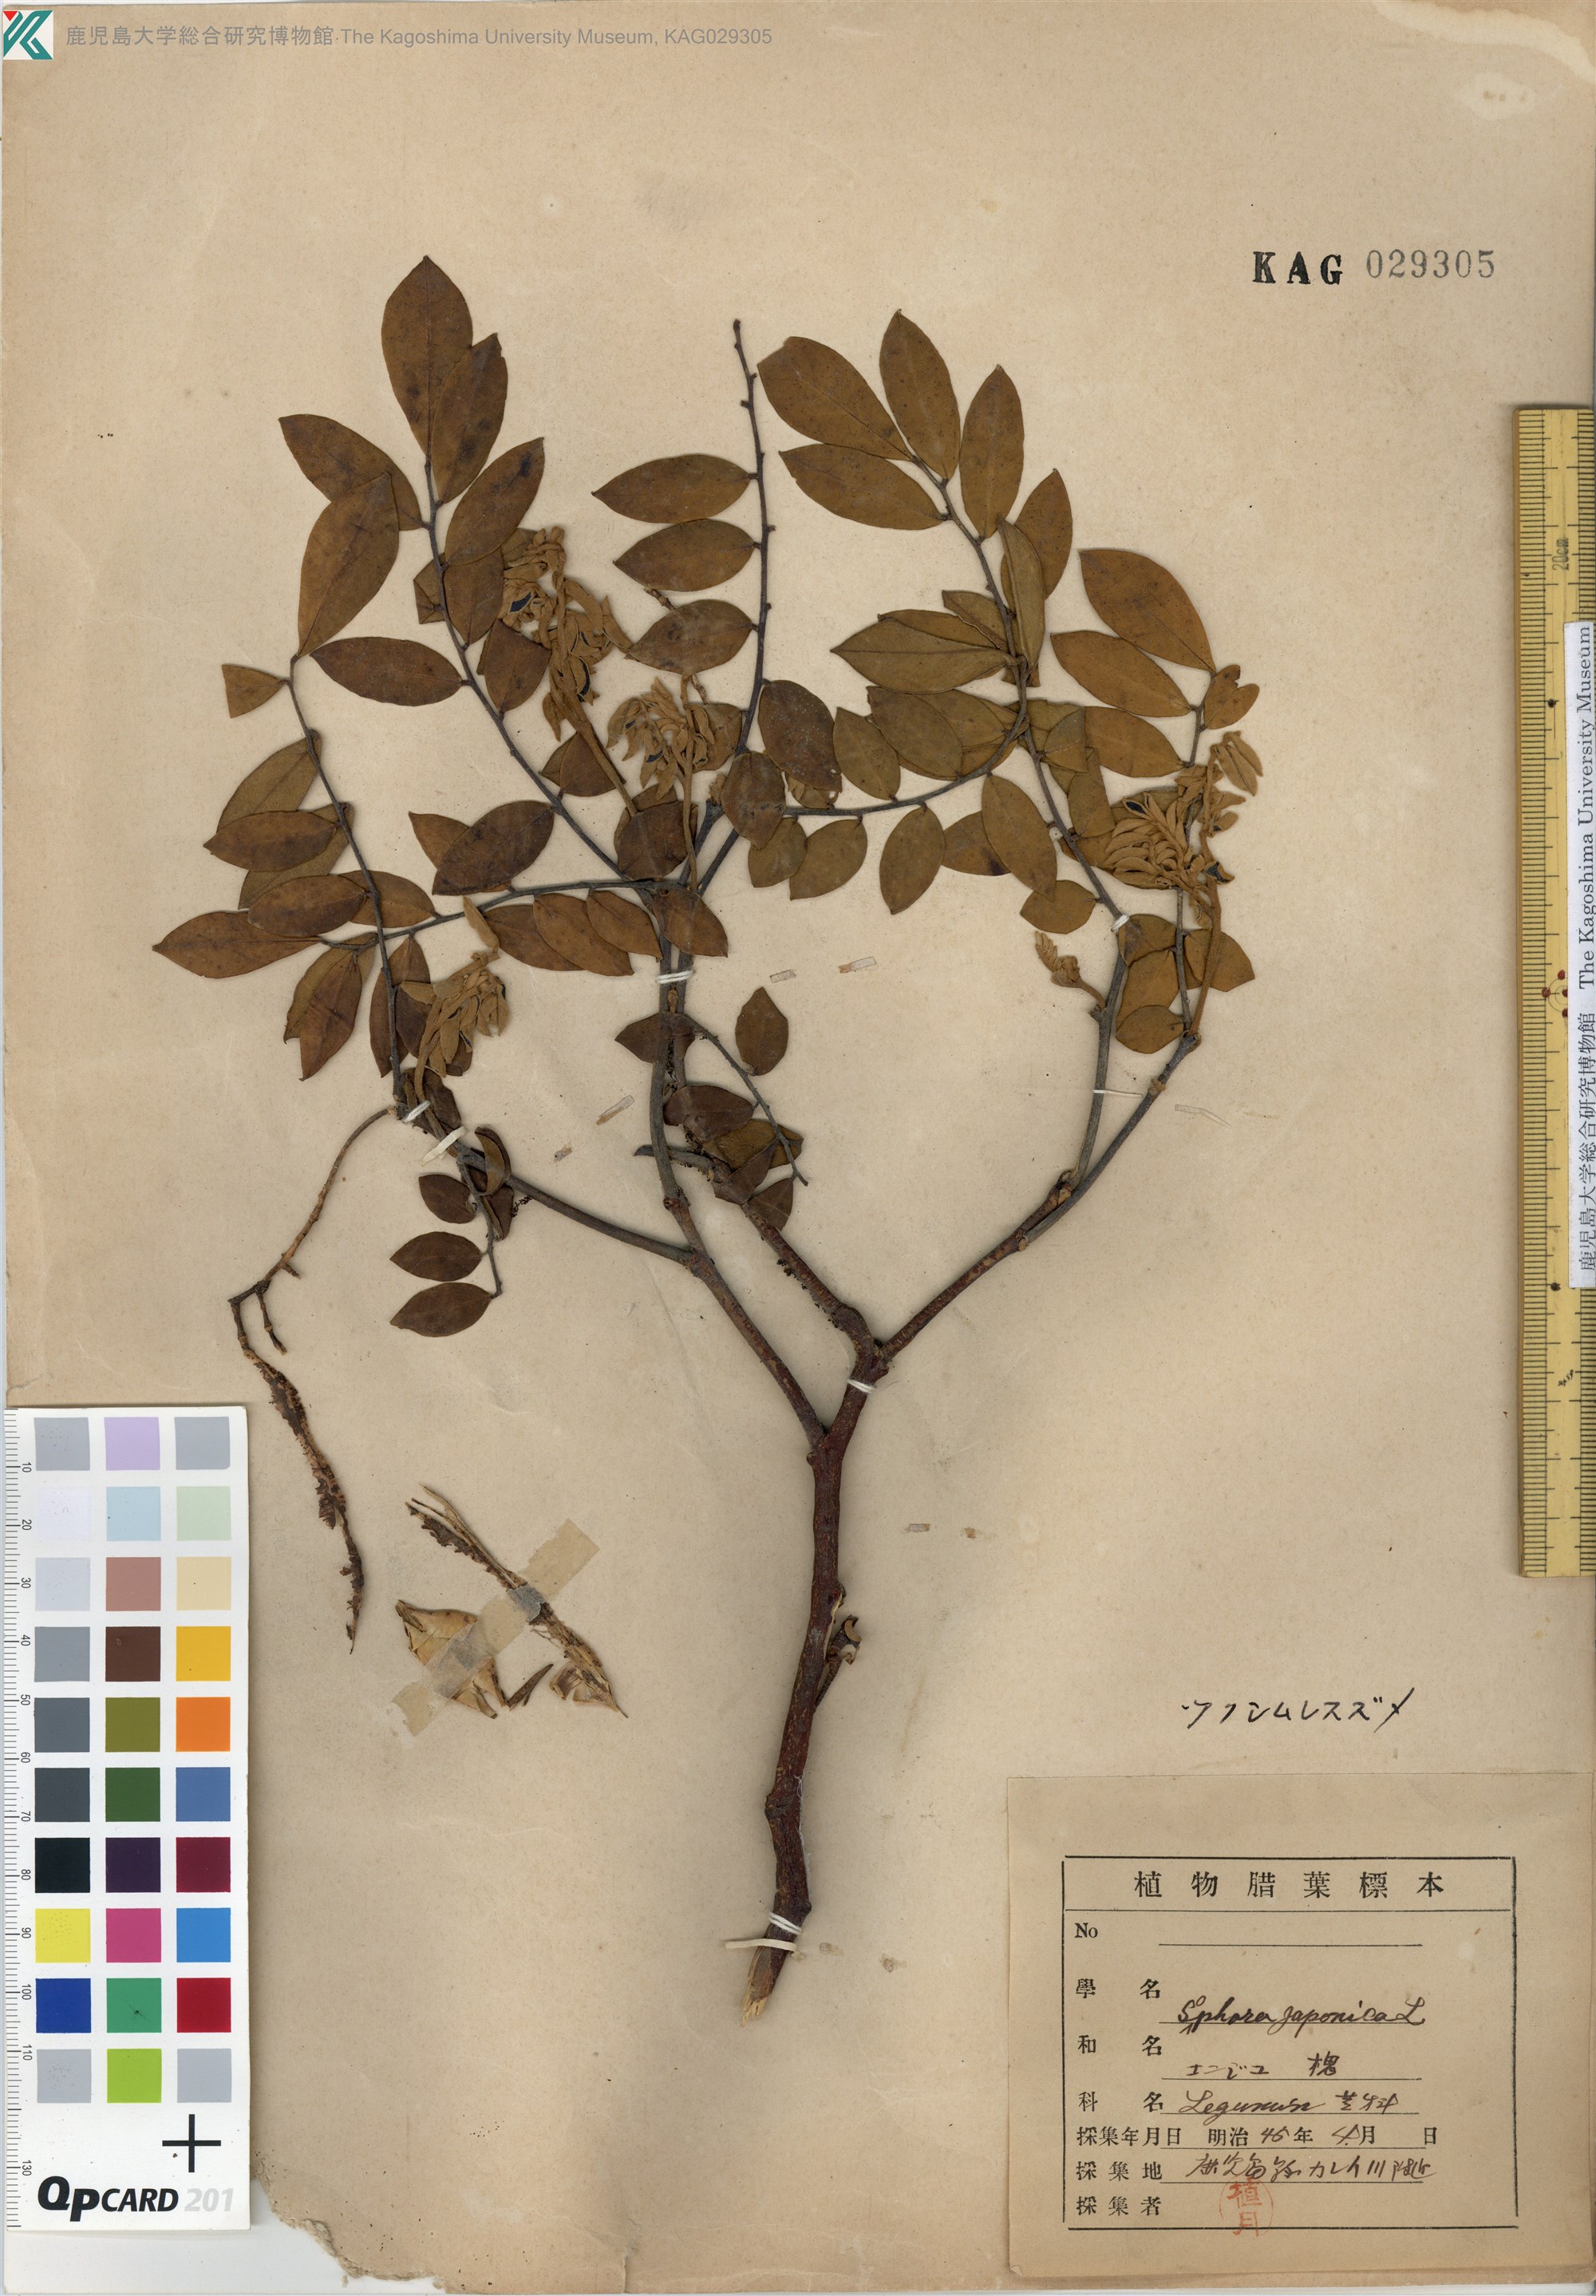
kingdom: Plantae
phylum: Tracheophyta
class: Magnoliopsida
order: Fabales
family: Fabaceae
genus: Sophora
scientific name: Sophora franchetiana
